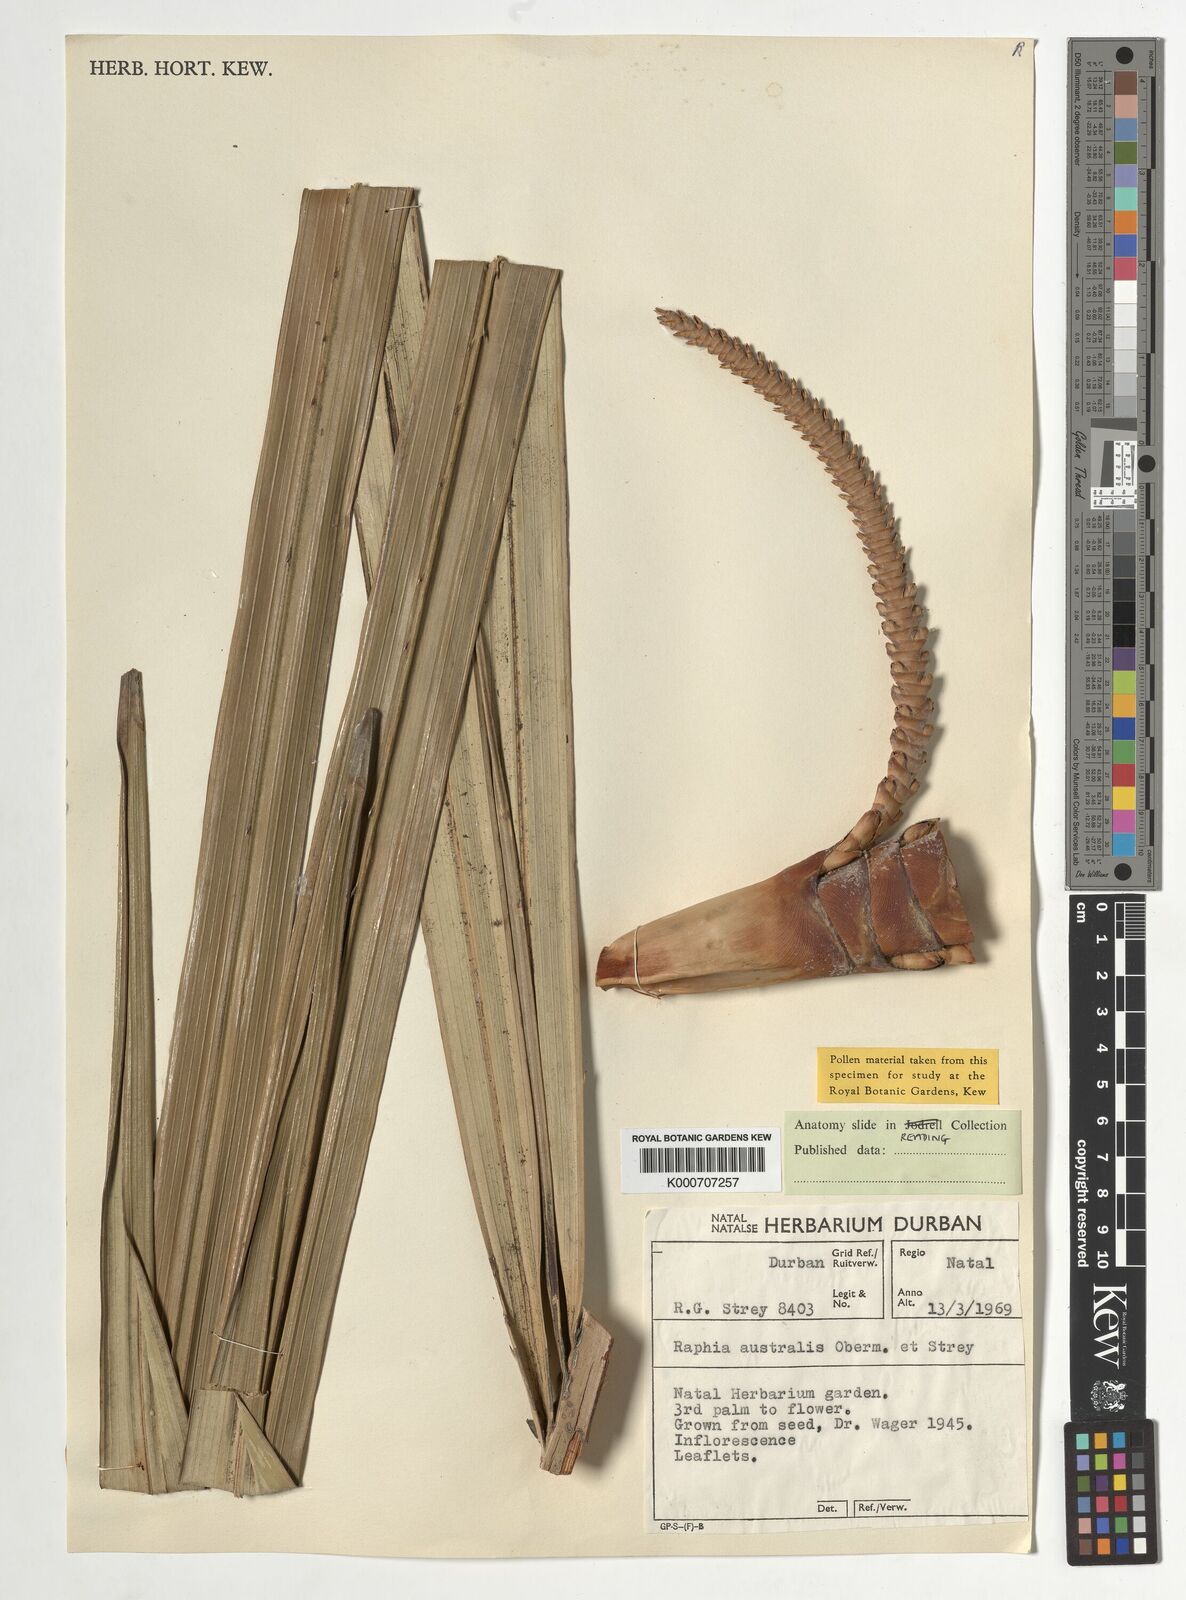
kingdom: Plantae
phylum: Tracheophyta
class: Liliopsida
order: Arecales
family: Arecaceae
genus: Raphia
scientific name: Raphia australis
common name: Giant palm
